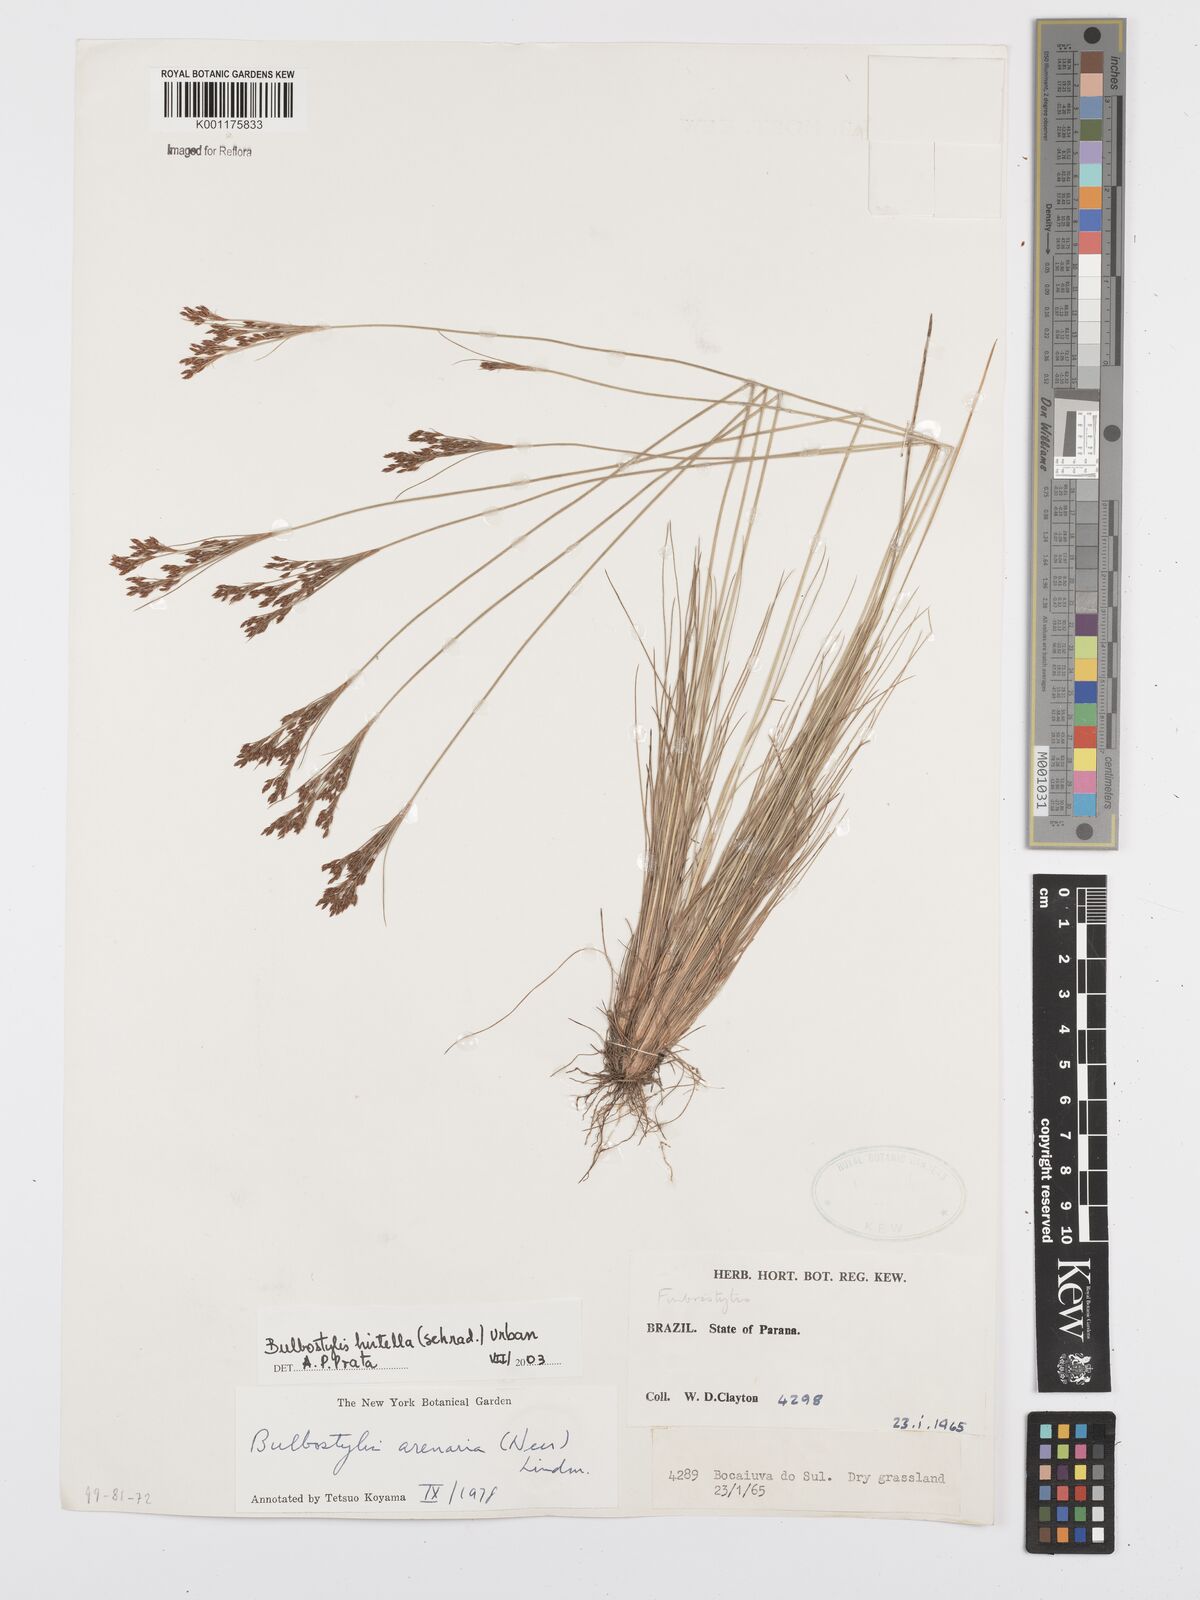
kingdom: Plantae
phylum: Tracheophyta
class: Liliopsida
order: Poales
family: Cyperaceae
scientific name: Cyperaceae
